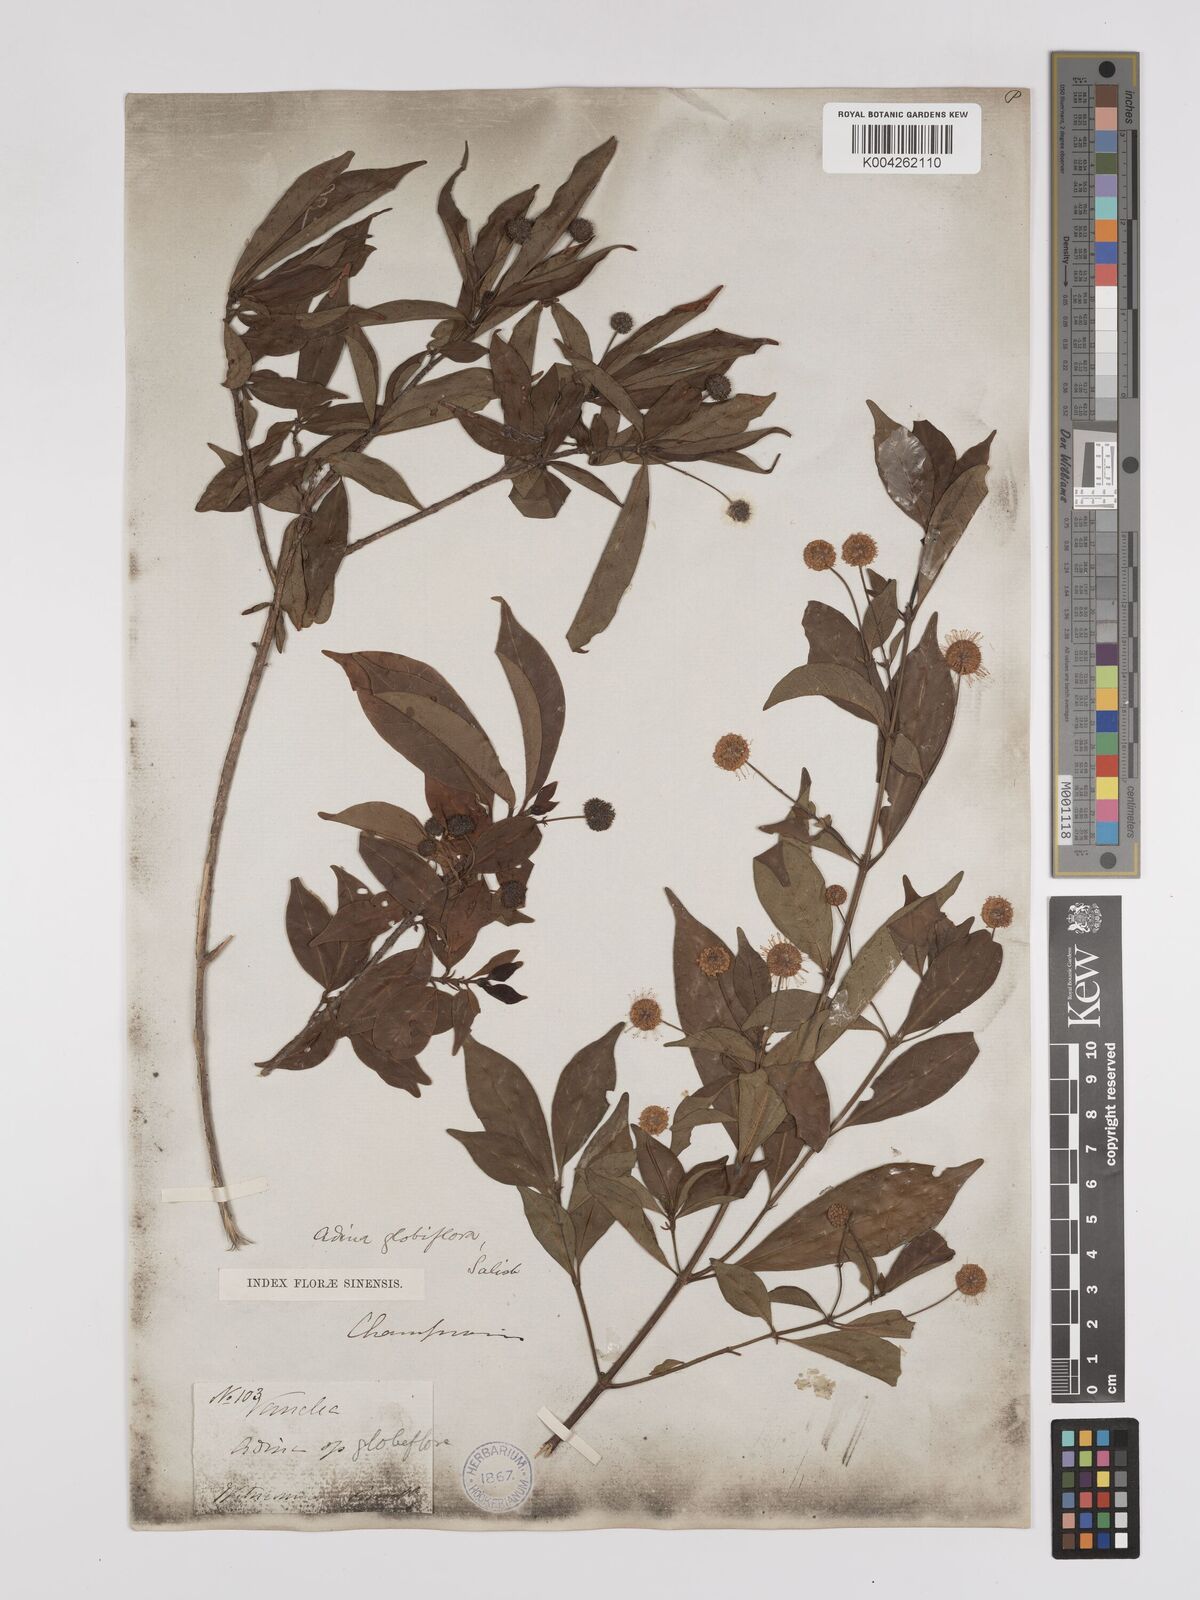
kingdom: Plantae
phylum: Tracheophyta
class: Magnoliopsida
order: Gentianales
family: Rubiaceae
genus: Adina
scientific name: Adina pilulifera
